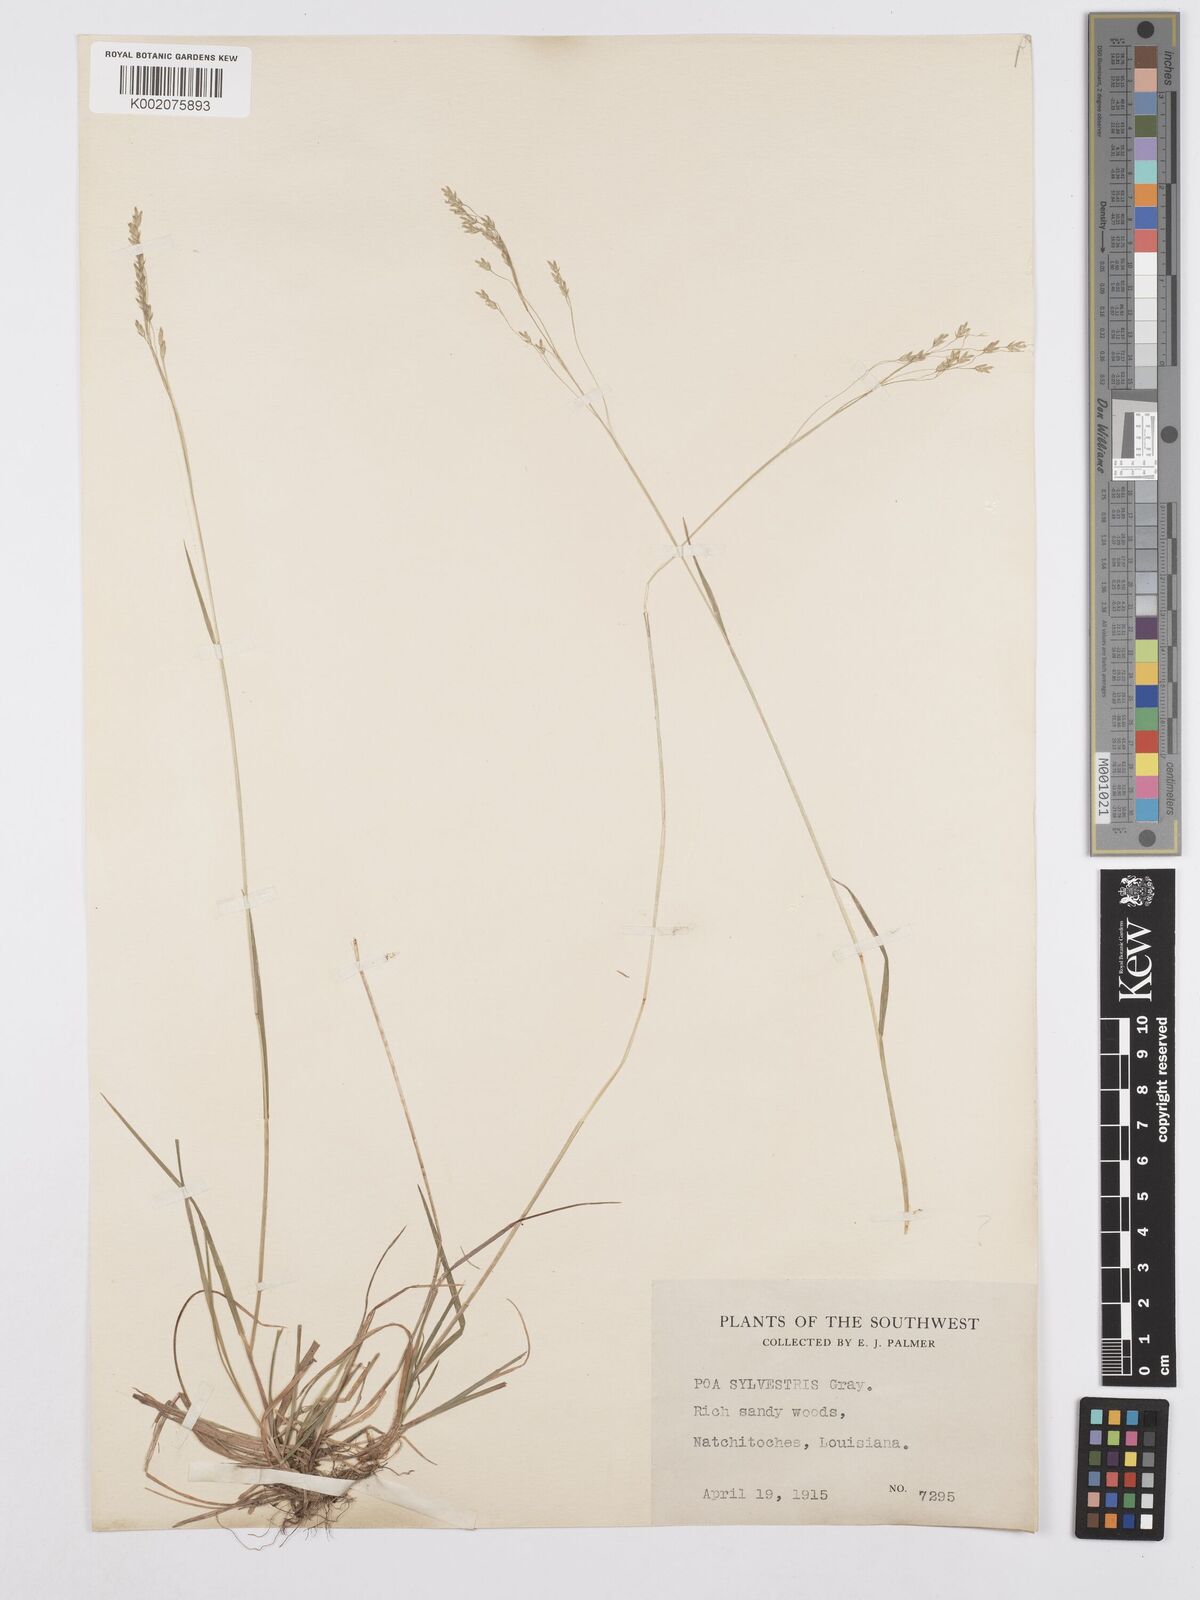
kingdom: Plantae
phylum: Tracheophyta
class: Liliopsida
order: Poales
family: Poaceae
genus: Poa
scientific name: Poa sylvestris
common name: North american woodland bluegrass
